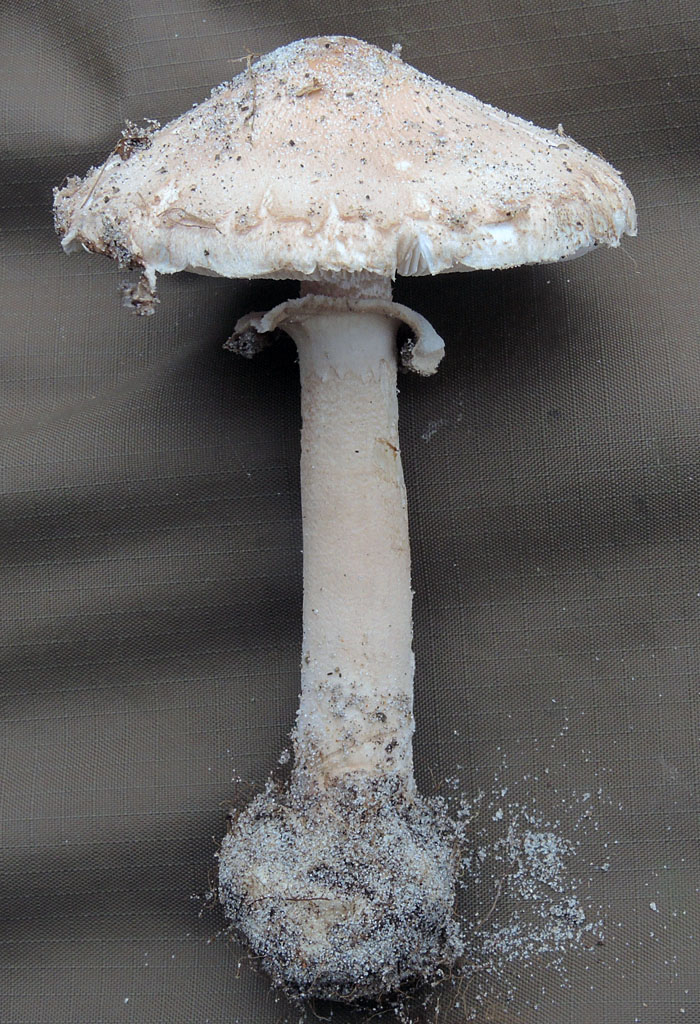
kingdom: Fungi
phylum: Basidiomycota
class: Agaricomycetes
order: Agaricales
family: Agaricaceae
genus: Macrolepiota
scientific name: Macrolepiota mastoidea
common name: puklet kæmpeparasolhat
